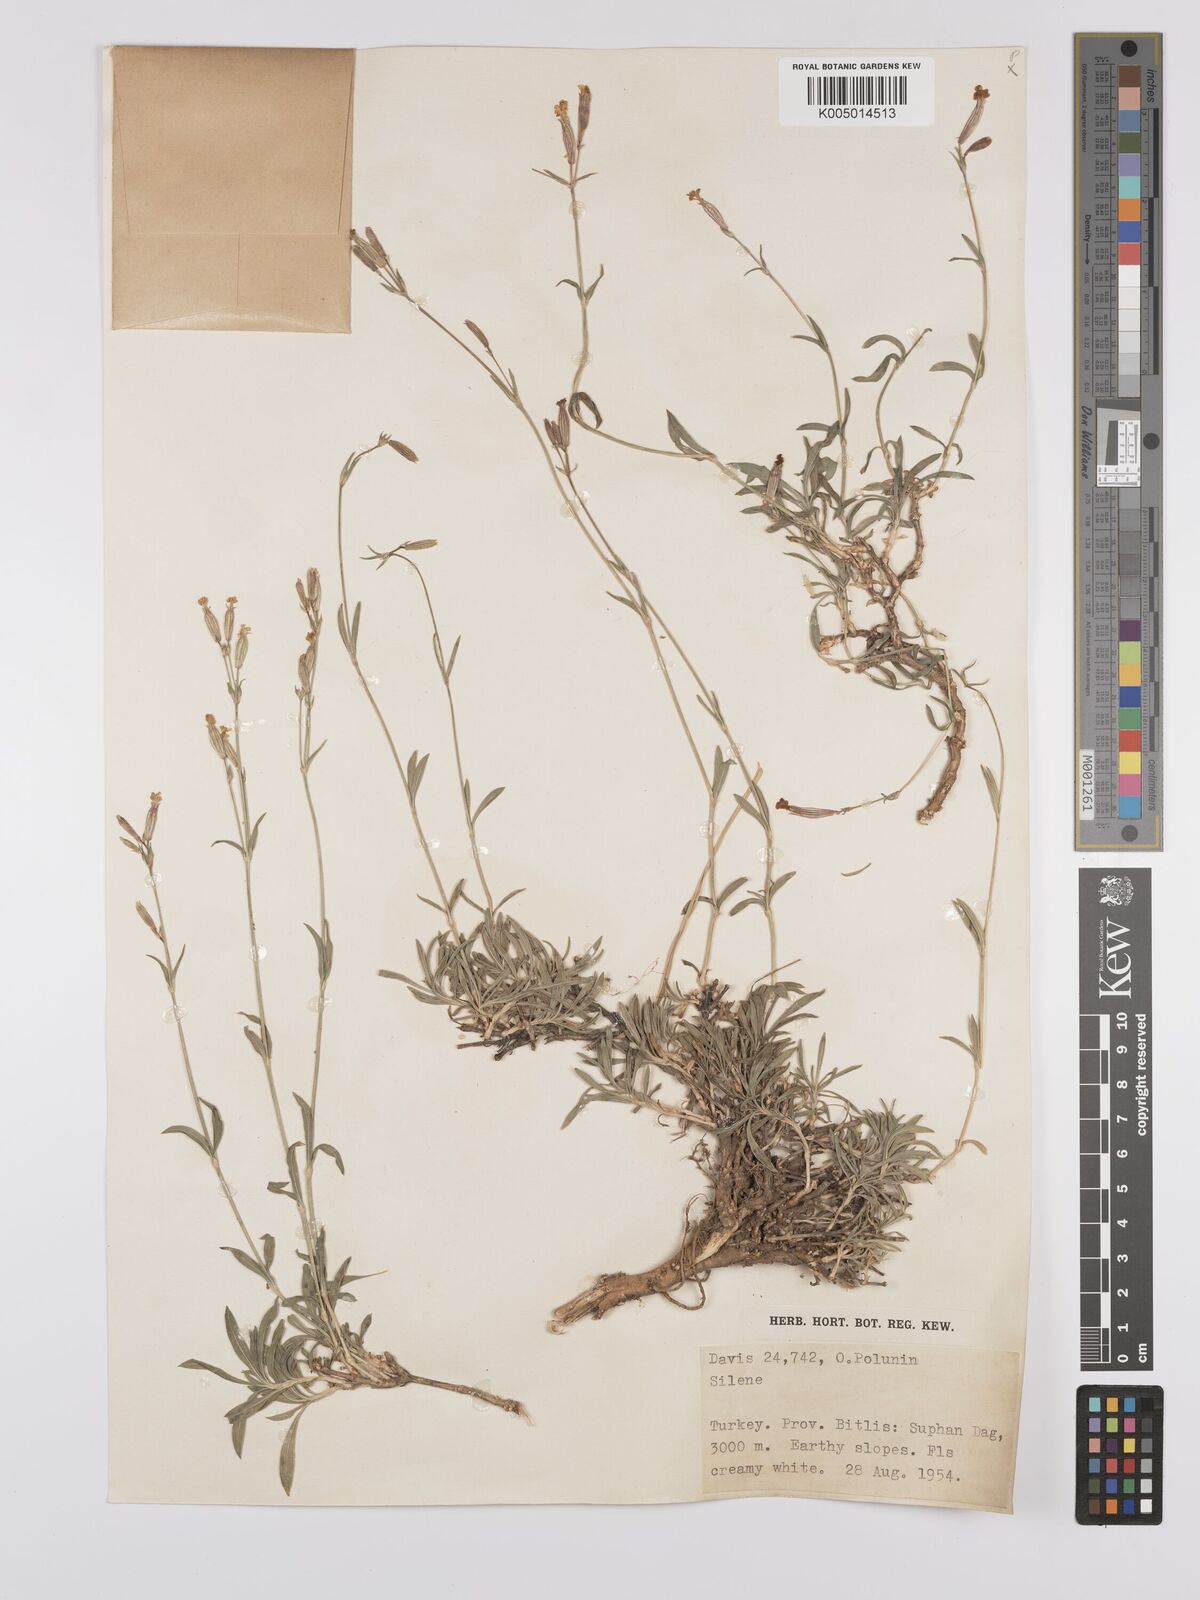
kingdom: Plantae
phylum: Tracheophyta
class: Magnoliopsida
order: Caryophyllales
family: Caryophyllaceae
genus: Silene
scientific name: Silene
